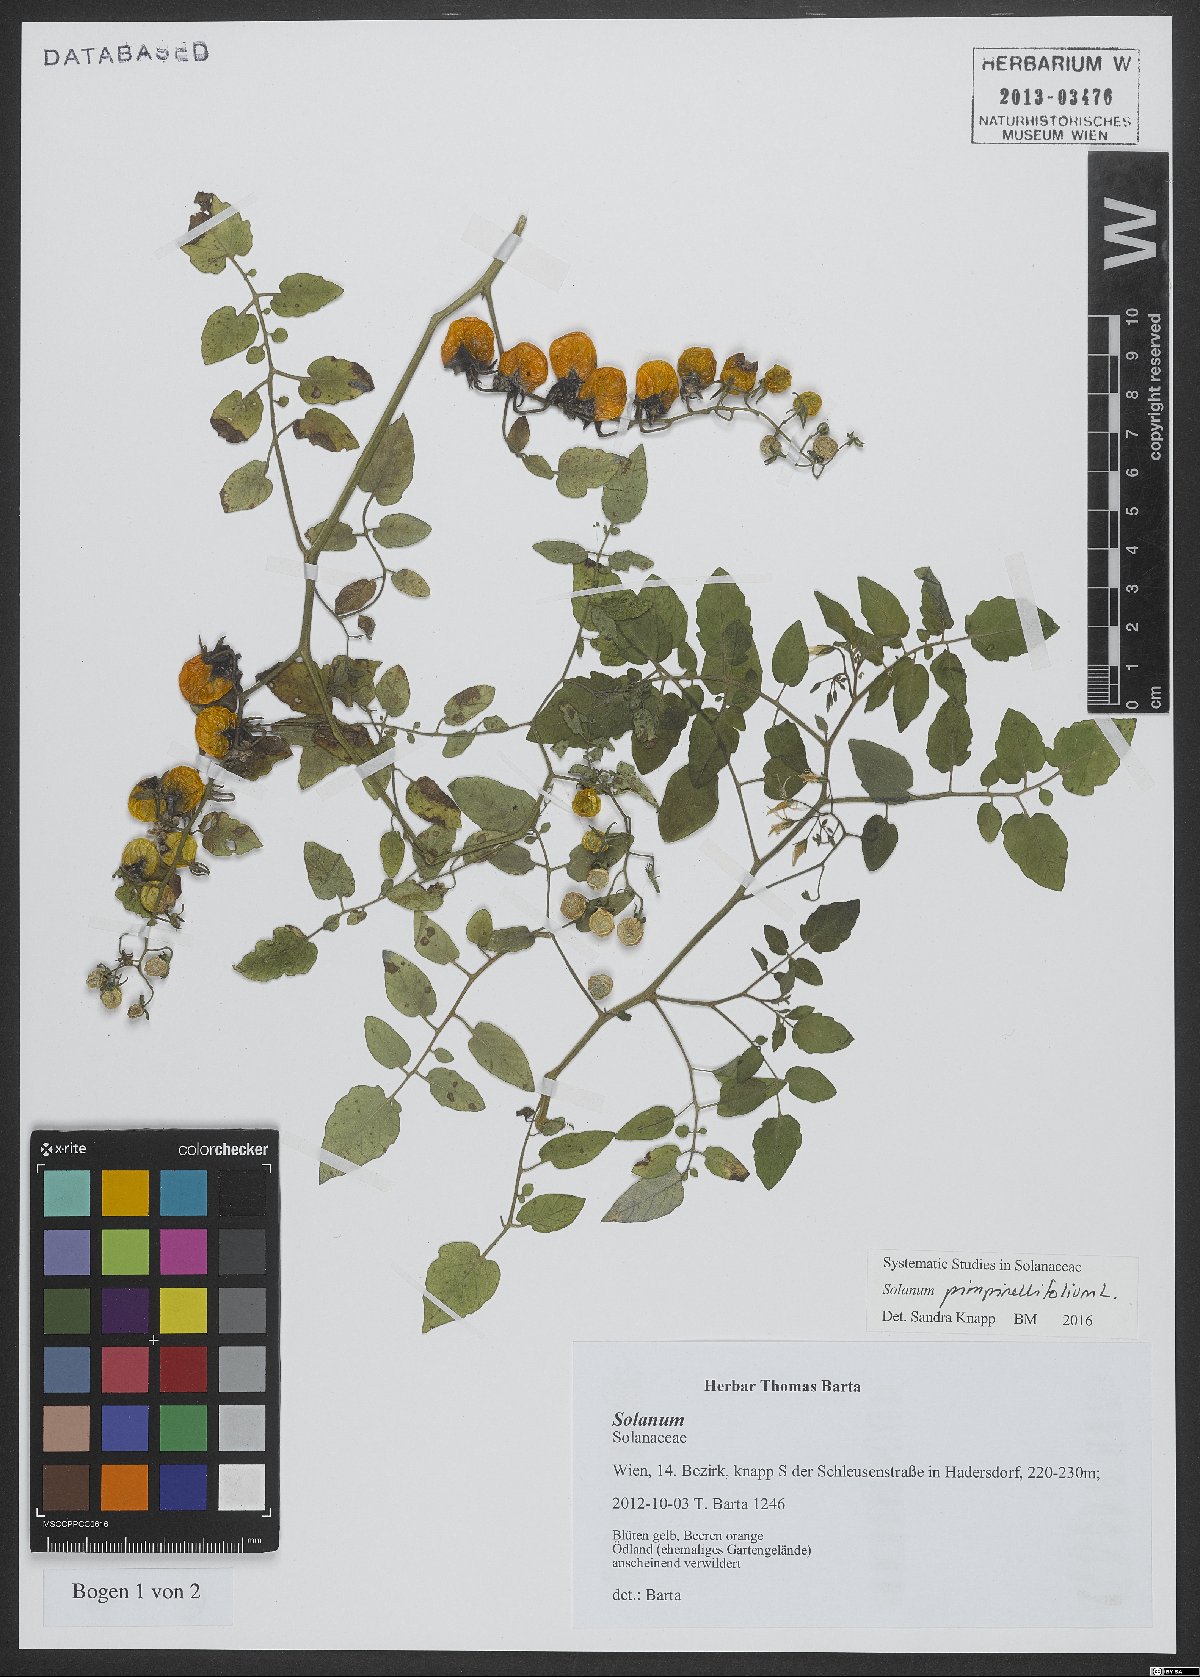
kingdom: Plantae
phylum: Tracheophyta
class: Magnoliopsida
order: Solanales
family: Solanaceae
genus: Solanum
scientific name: Solanum pimpinellifolium
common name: Currant-tomato
